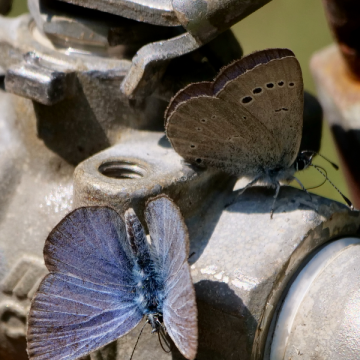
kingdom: Animalia
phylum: Arthropoda
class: Insecta
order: Lepidoptera
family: Lycaenidae
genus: Glaucopsyche
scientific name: Glaucopsyche lygdamus
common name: Silvery Blue
